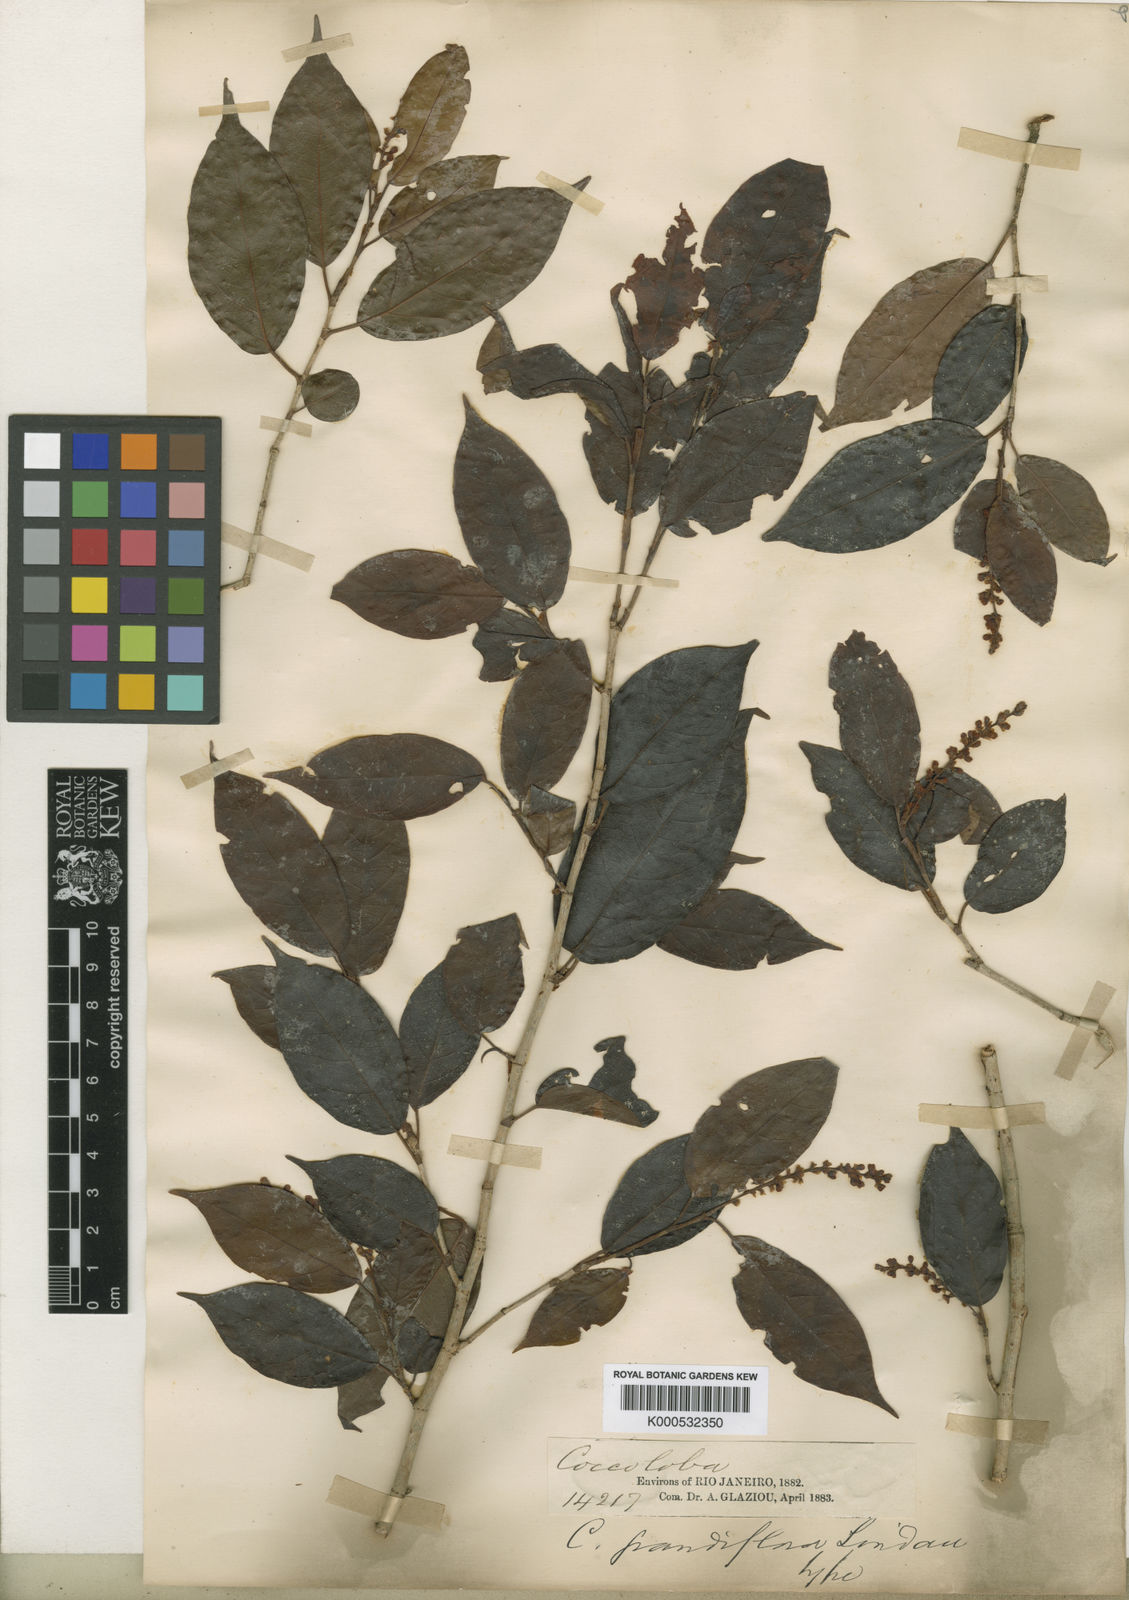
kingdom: Plantae
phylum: Tracheophyta
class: Magnoliopsida
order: Caryophyllales
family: Polygonaceae
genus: Coccoloba
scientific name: Coccoloba pubescens
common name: Mountain-grape
